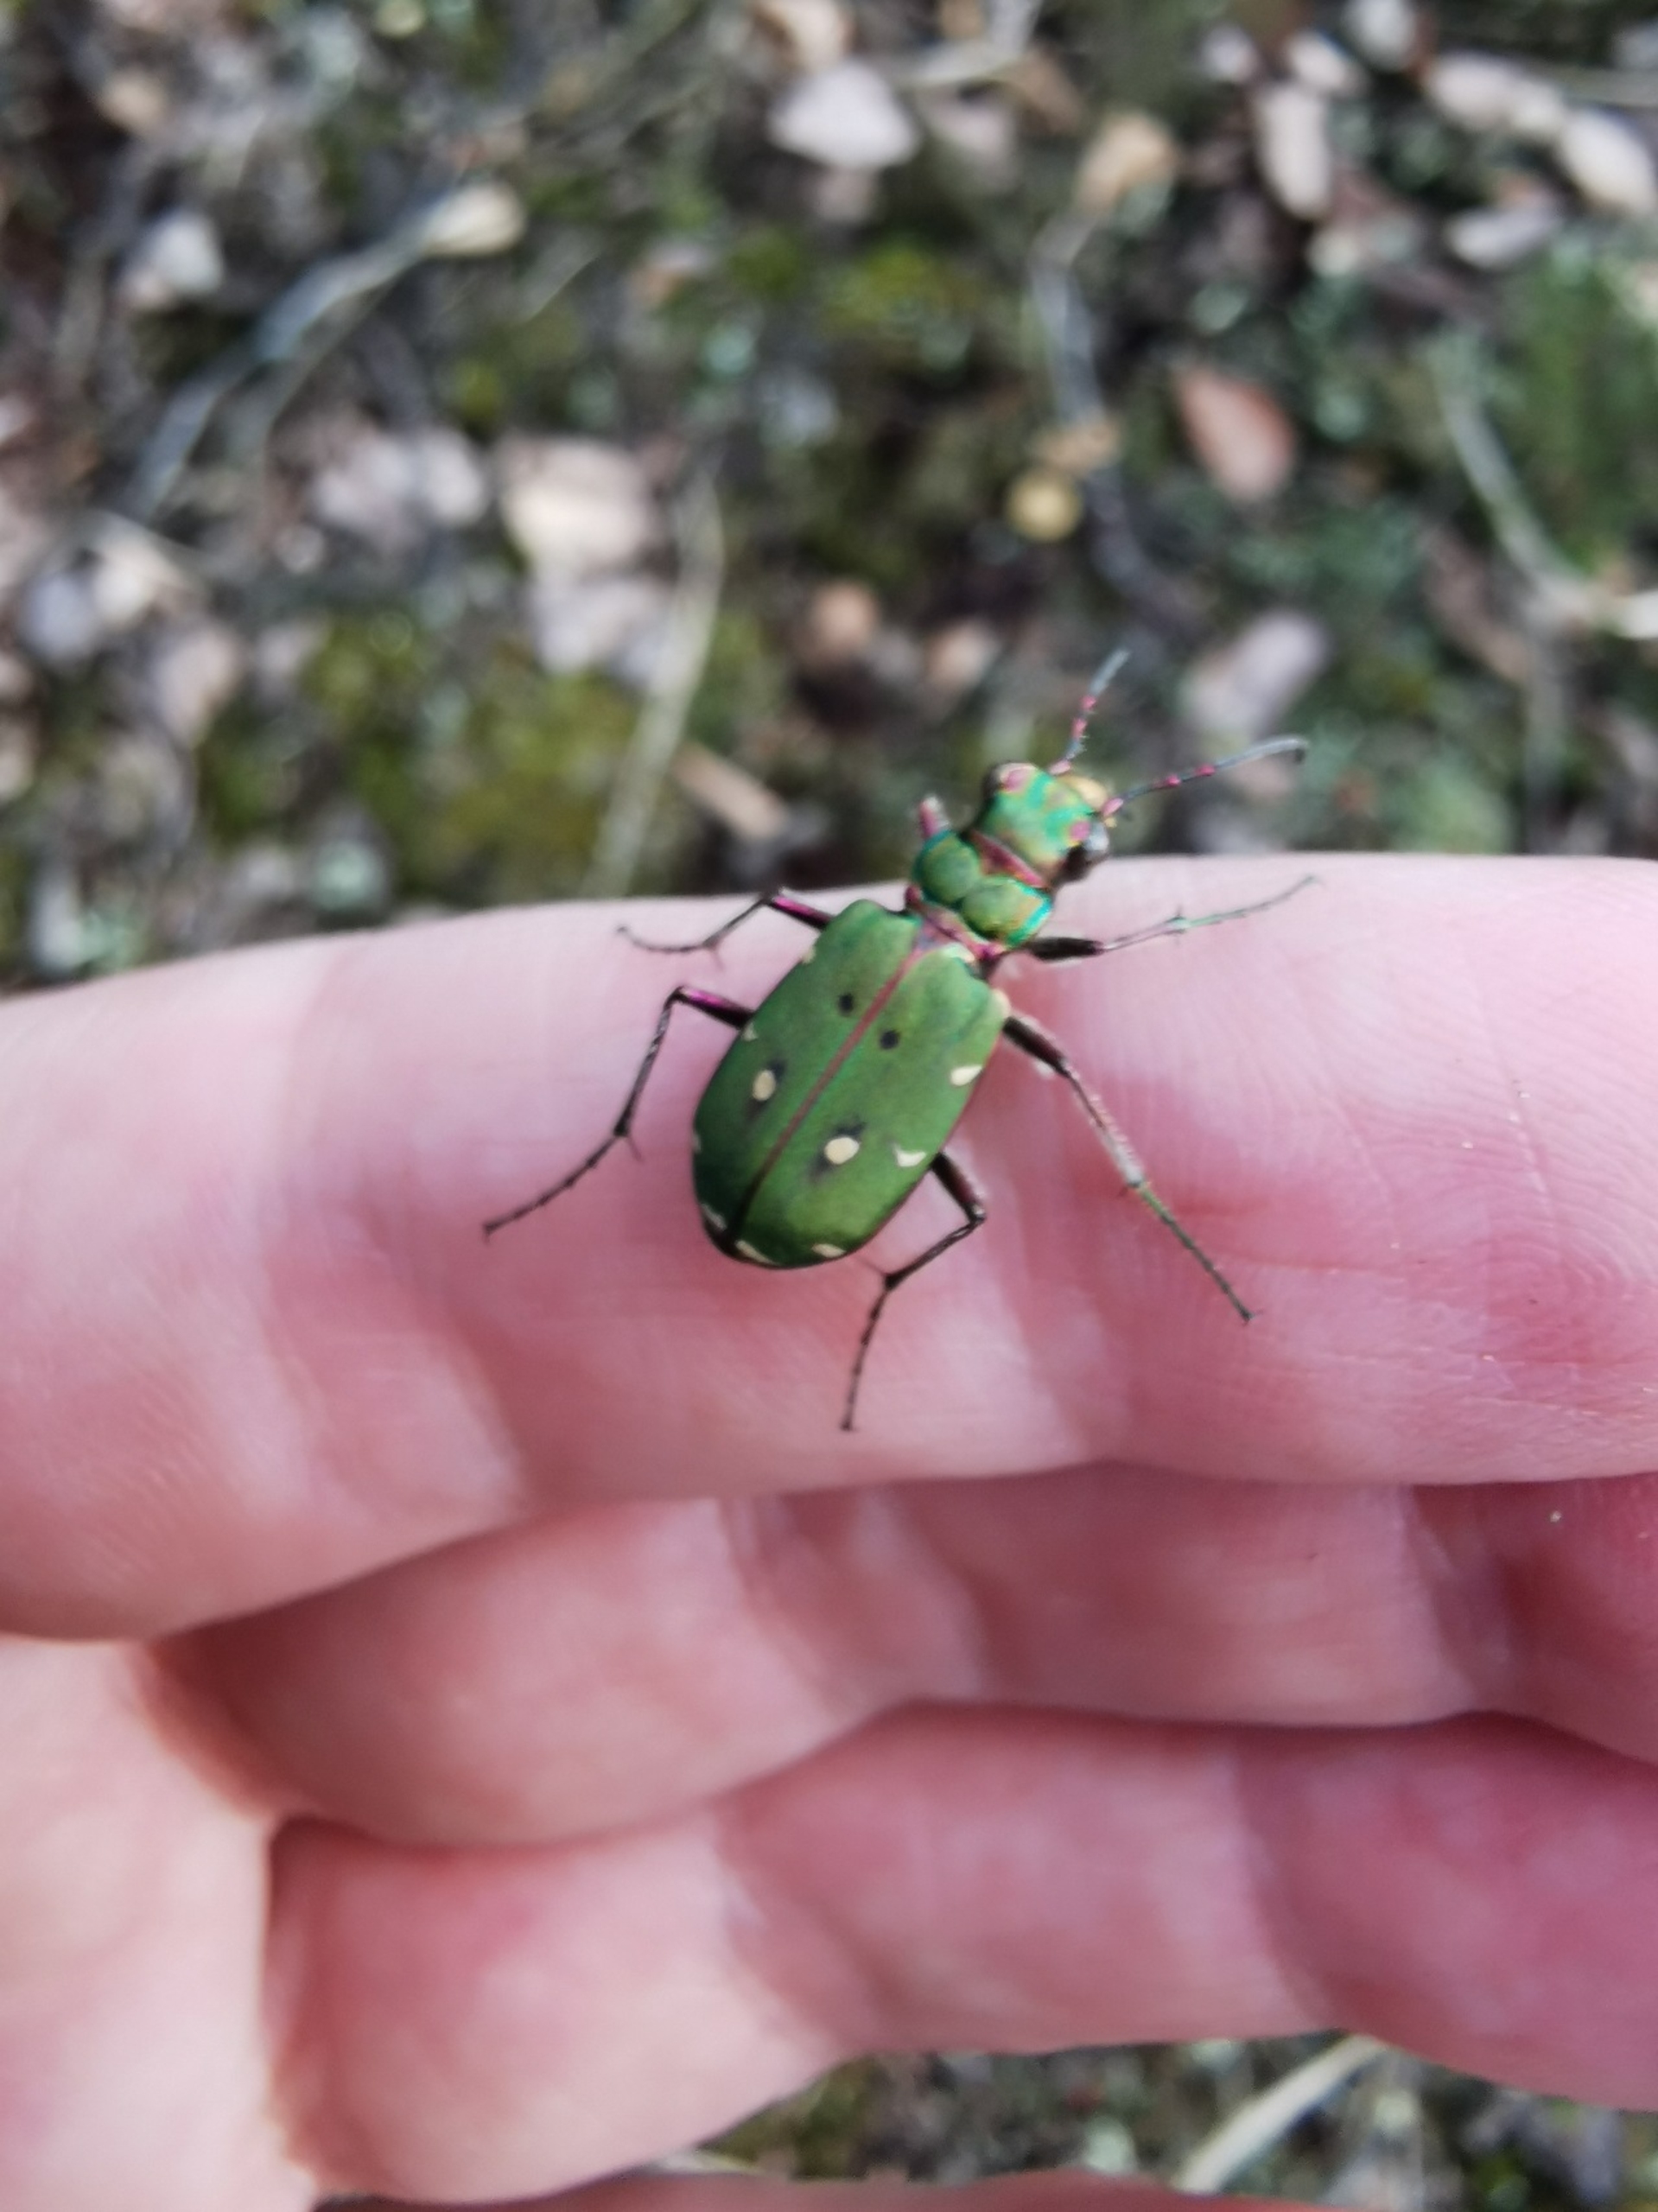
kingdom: Animalia
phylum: Arthropoda
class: Insecta
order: Coleoptera
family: Carabidae
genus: Cicindela
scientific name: Cicindela campestris
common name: Grøn sandspringer
